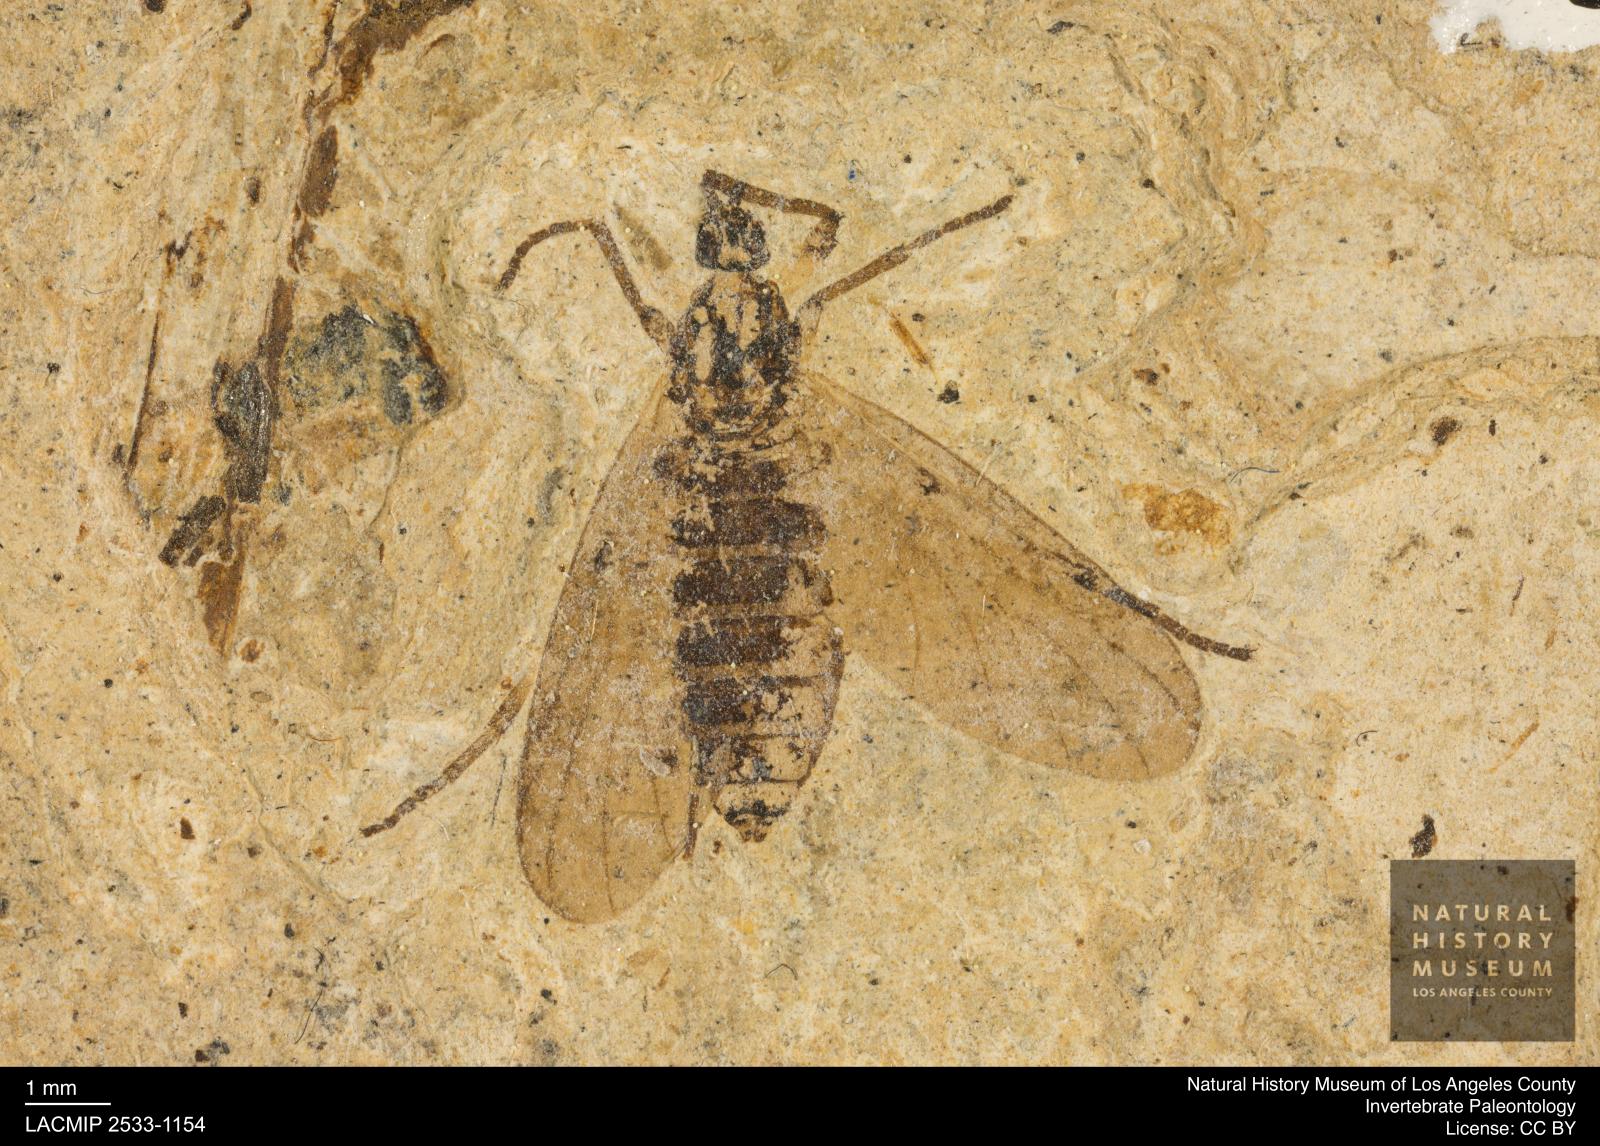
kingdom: Animalia
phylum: Arthropoda
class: Insecta
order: Diptera
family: Bibionidae
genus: Plecia
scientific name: Plecia hypogaea
